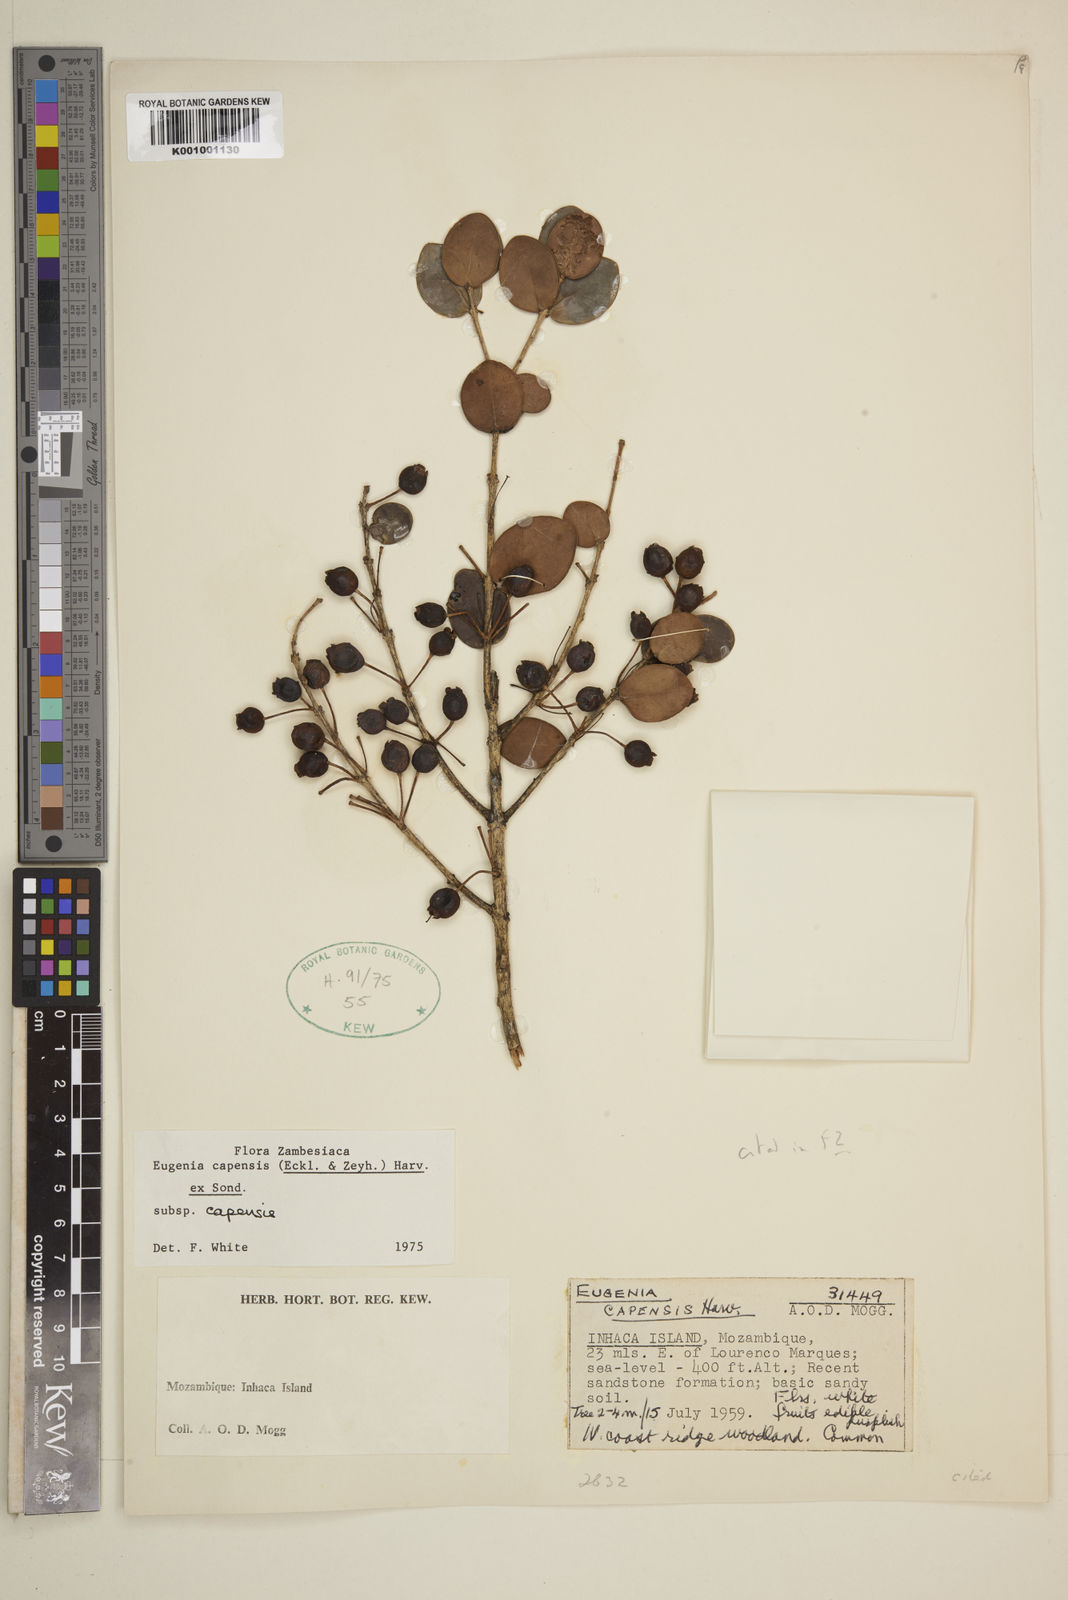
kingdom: Plantae
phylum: Tracheophyta
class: Magnoliopsida
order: Myrtales
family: Myrtaceae
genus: Eugenia
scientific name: Eugenia capensis
